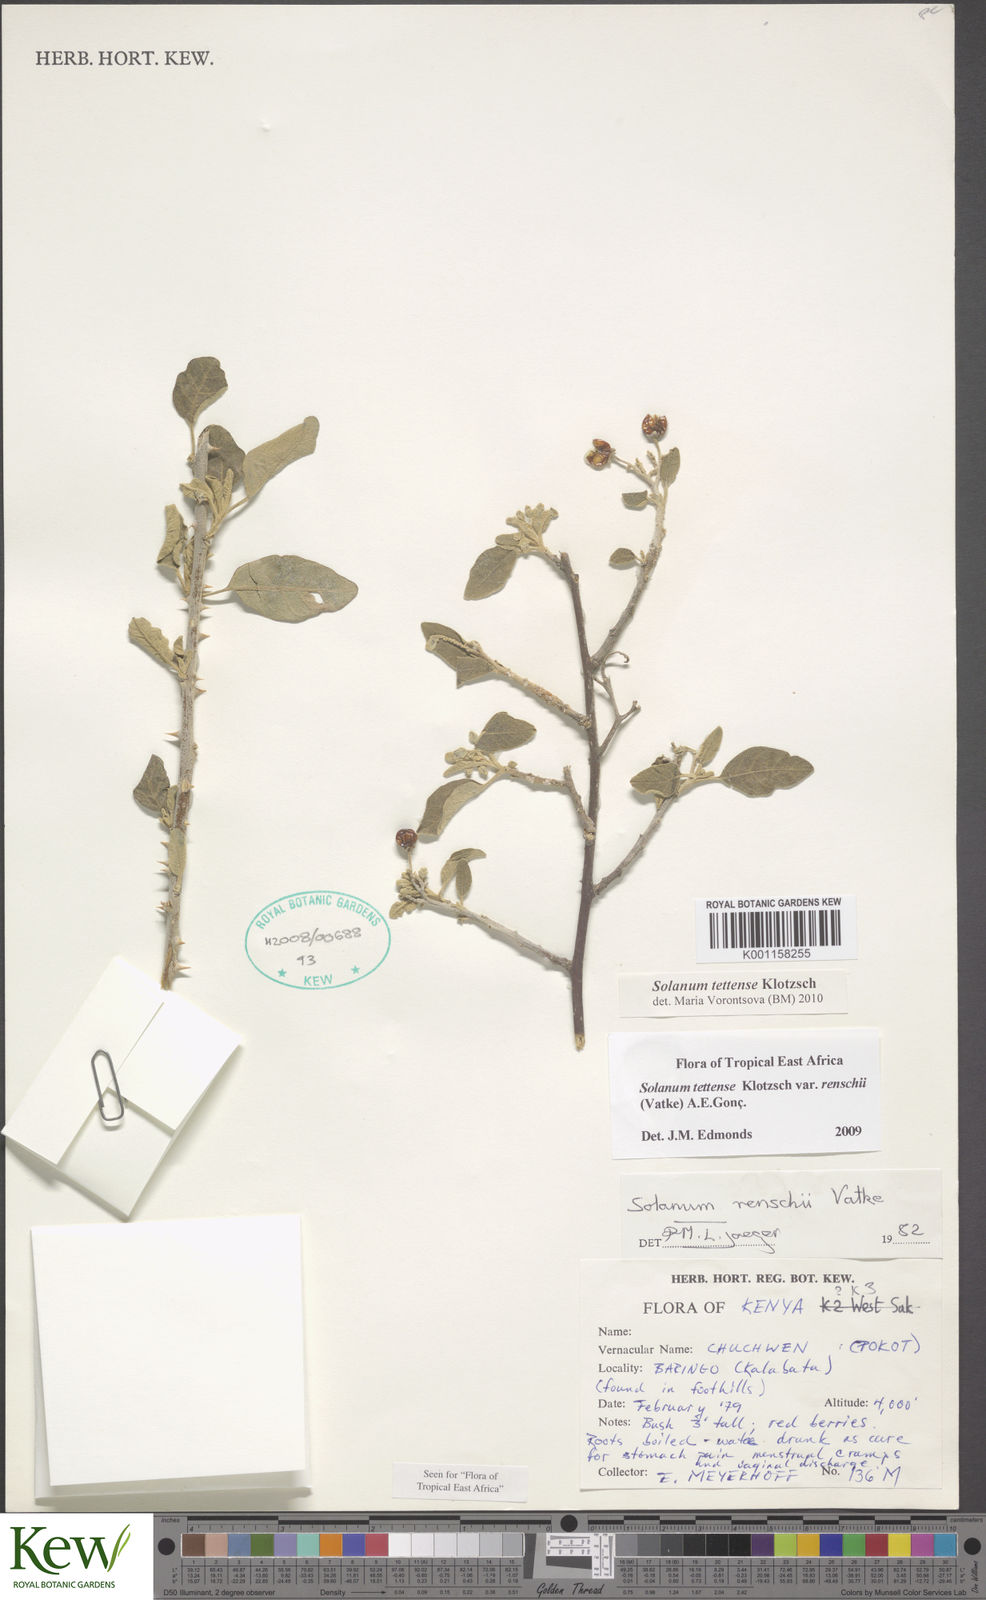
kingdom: Plantae
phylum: Tracheophyta
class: Magnoliopsida
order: Solanales
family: Solanaceae
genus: Solanum
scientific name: Solanum tettense
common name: Mozambique bitter apple
